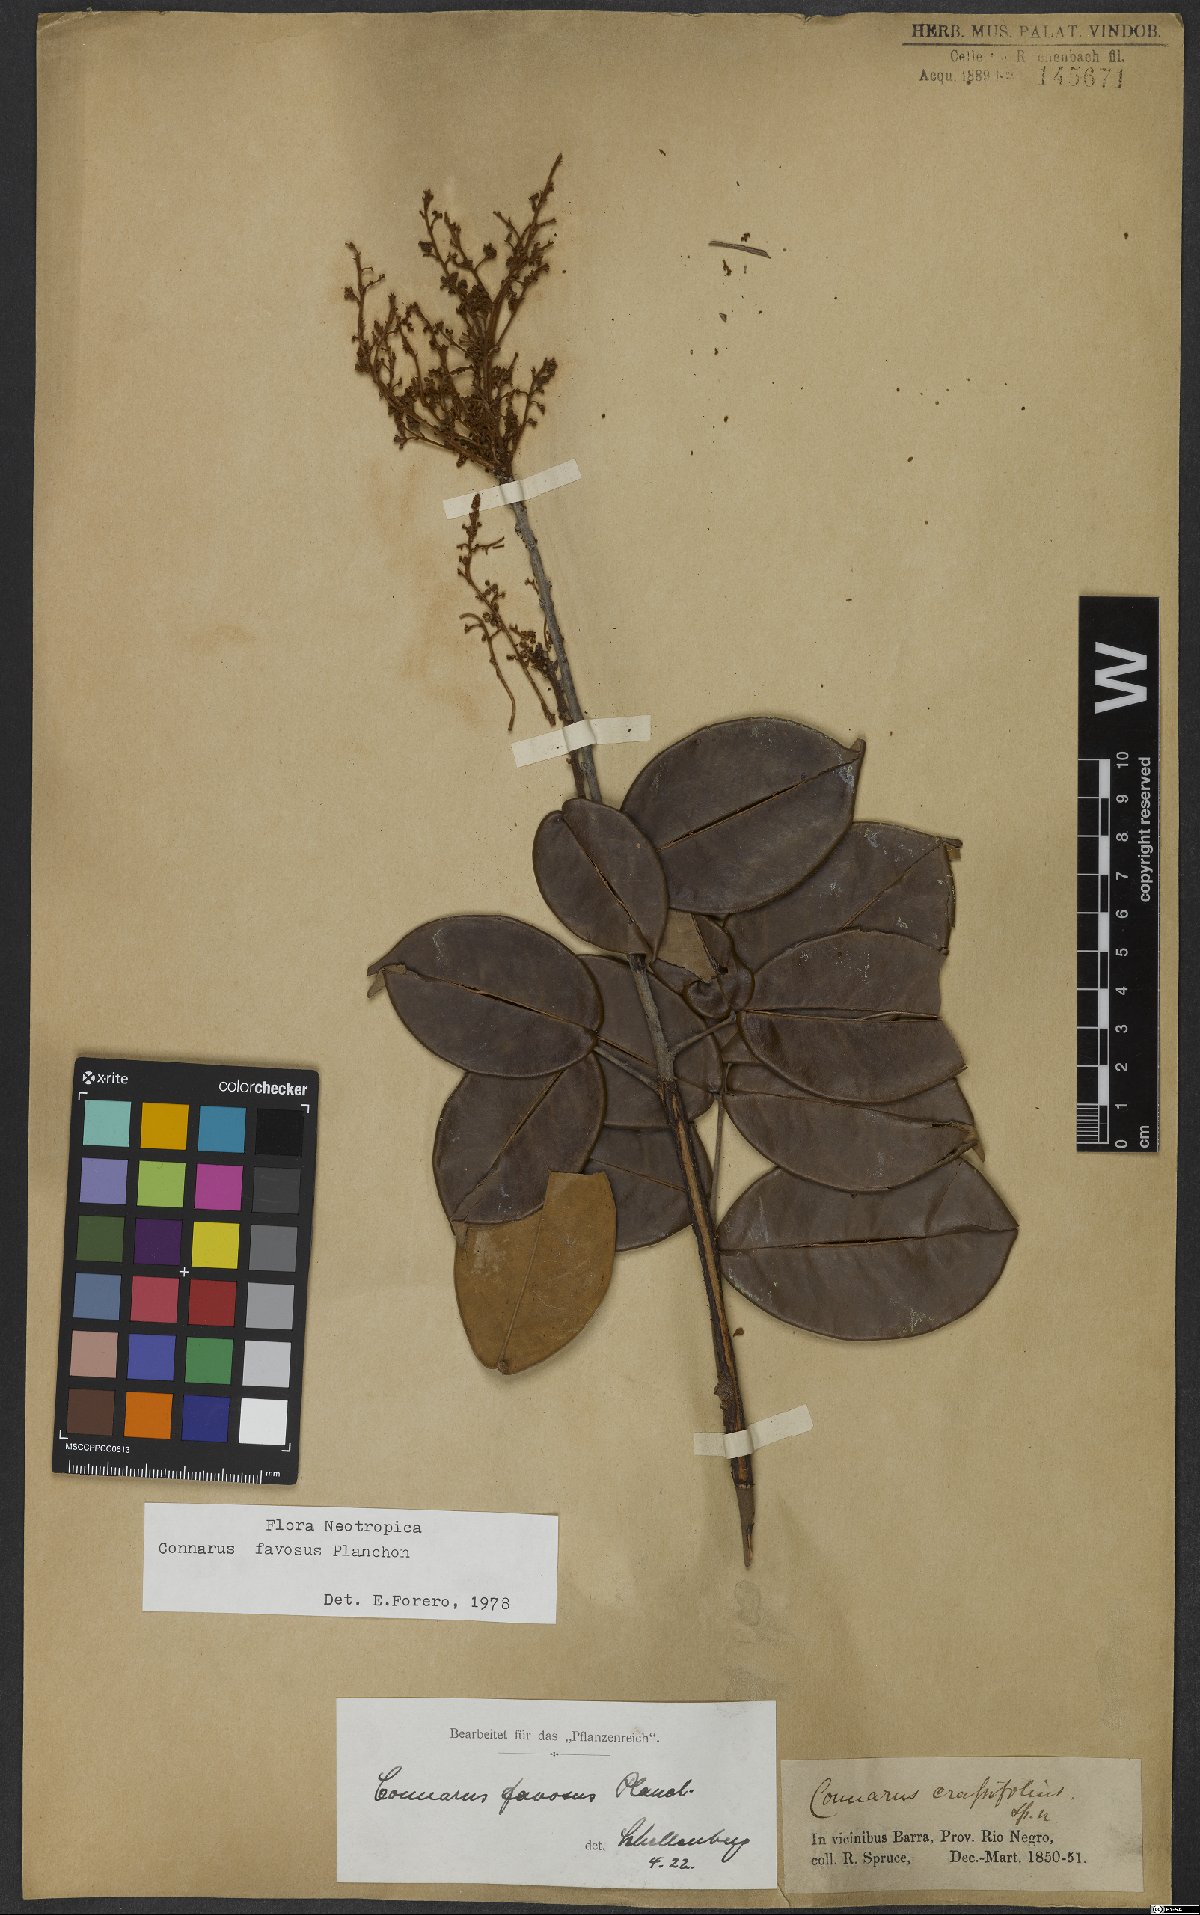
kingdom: Plantae
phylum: Tracheophyta
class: Magnoliopsida
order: Oxalidales
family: Connaraceae
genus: Connarus
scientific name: Connarus favosus
